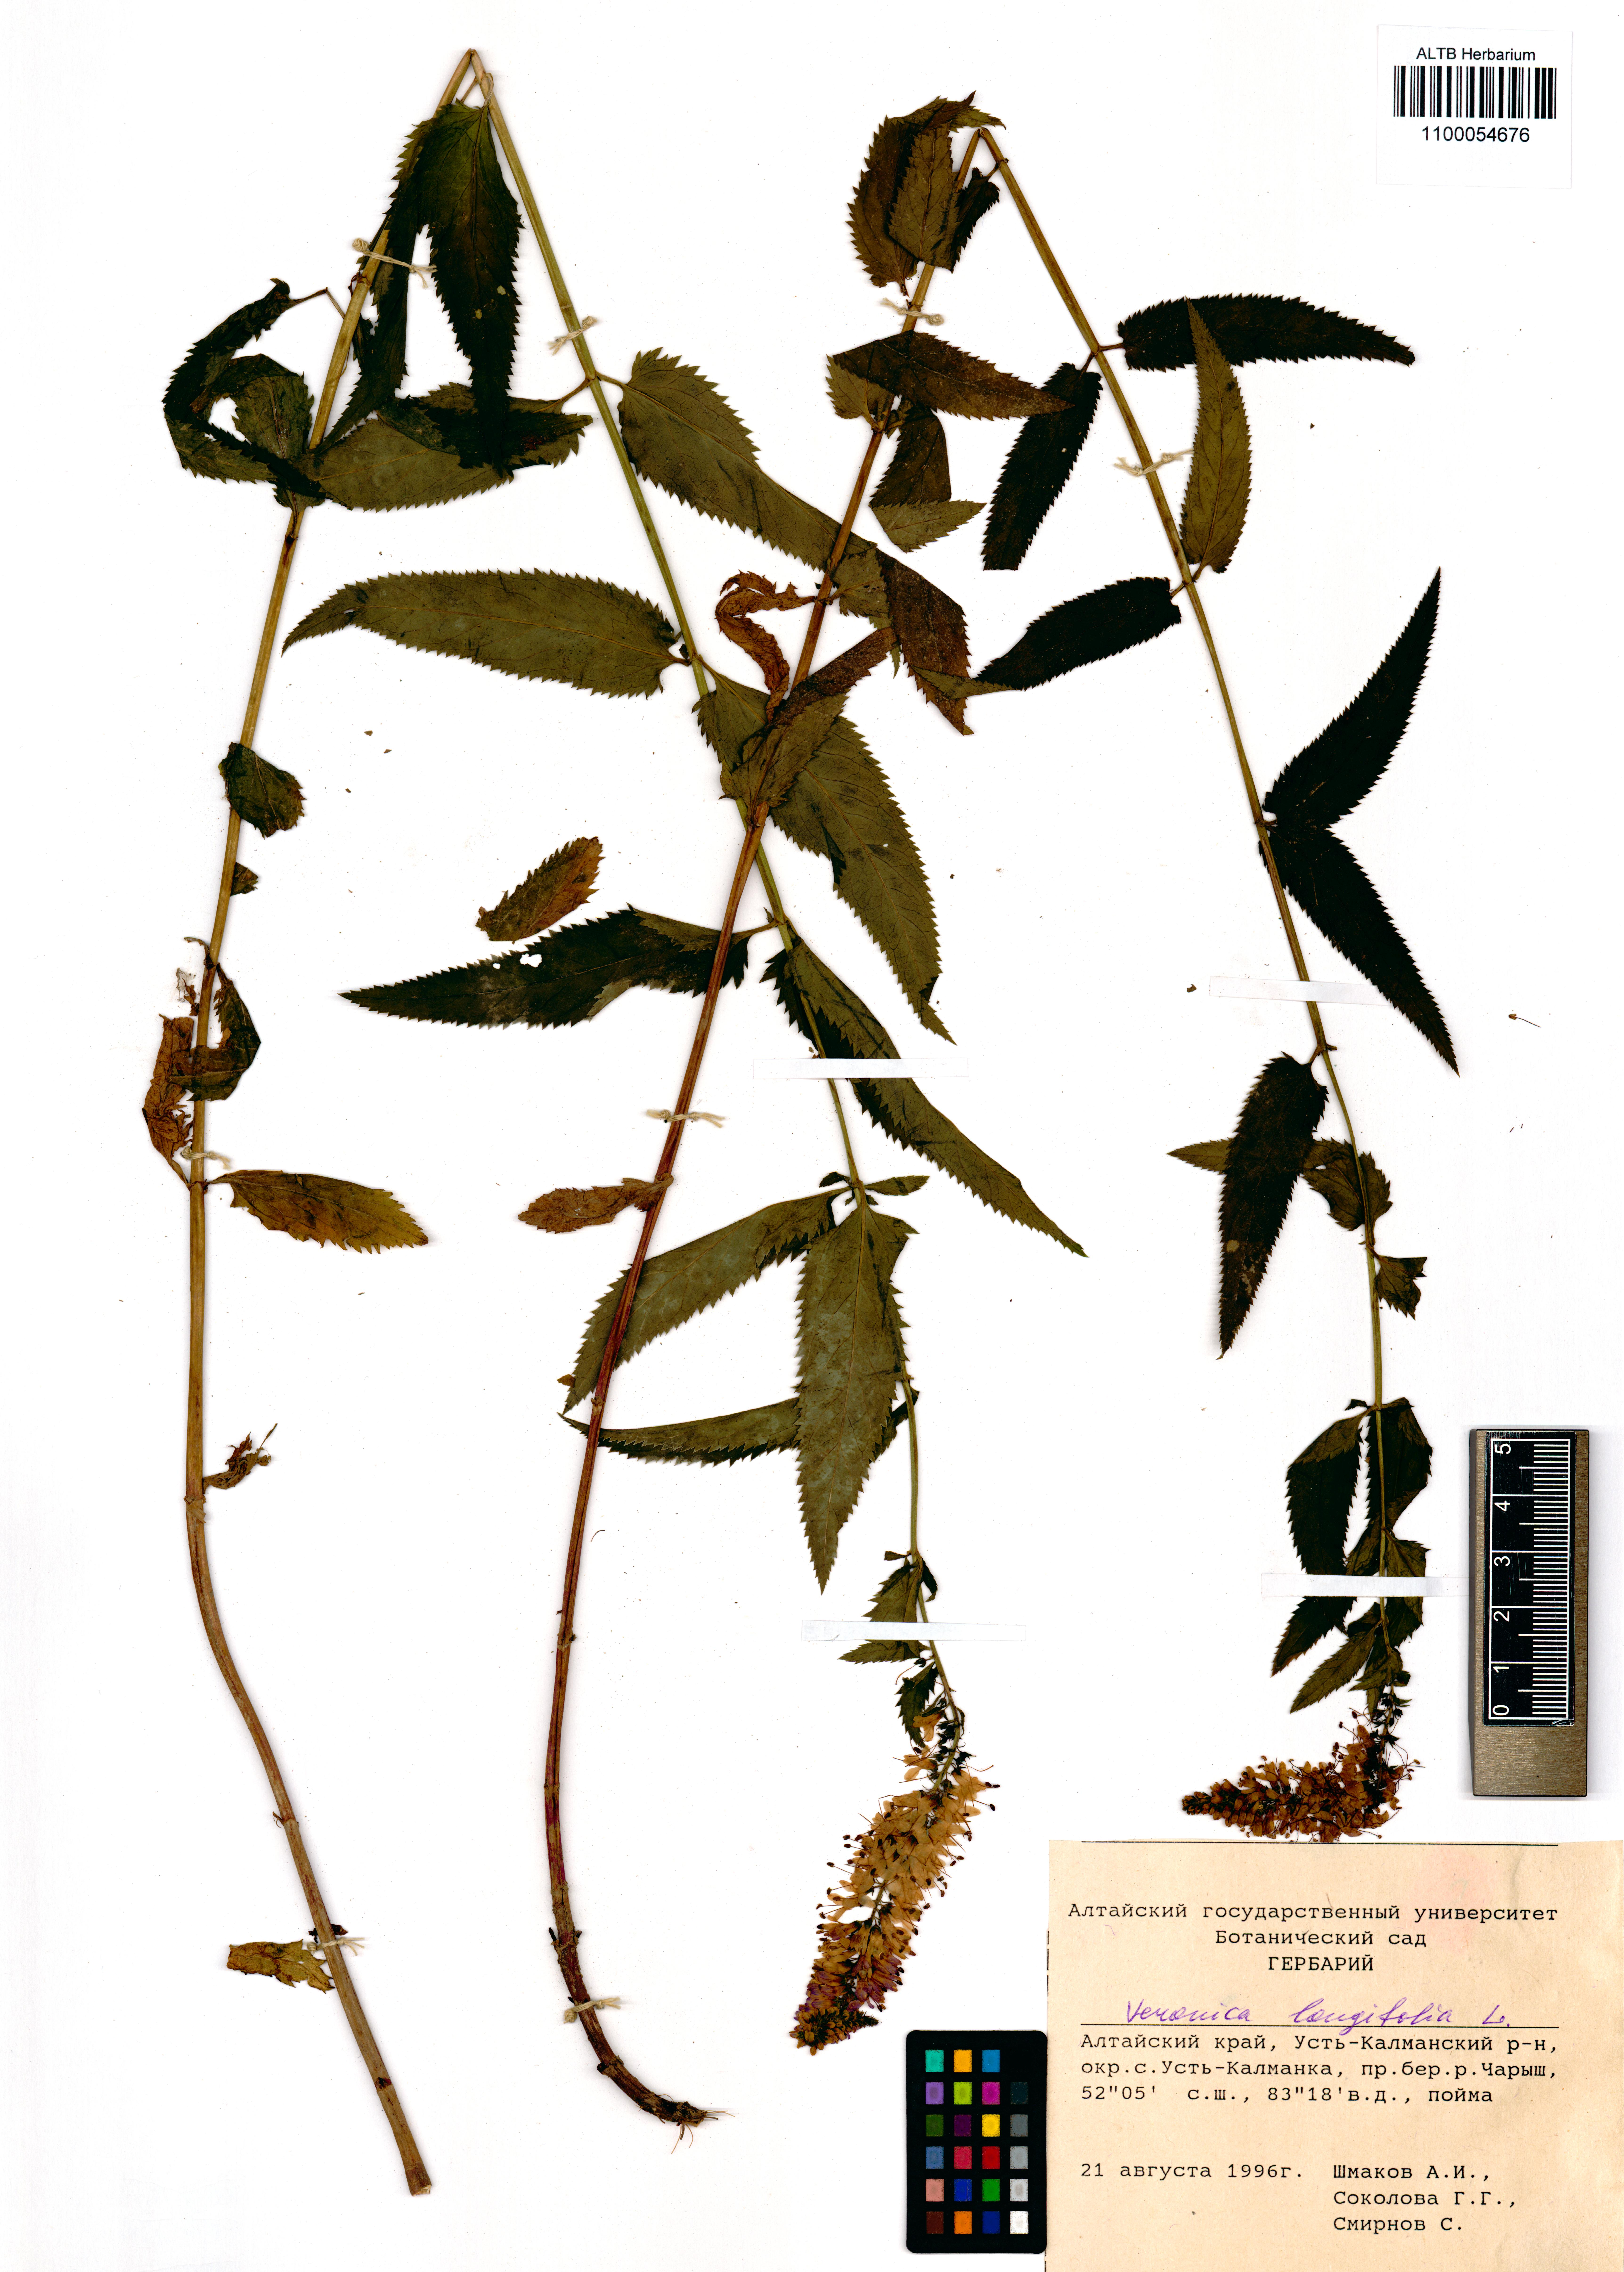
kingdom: Plantae
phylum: Tracheophyta
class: Magnoliopsida
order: Lamiales
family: Plantaginaceae
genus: Veronica
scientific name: Veronica longifolia
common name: Garden speedwell
